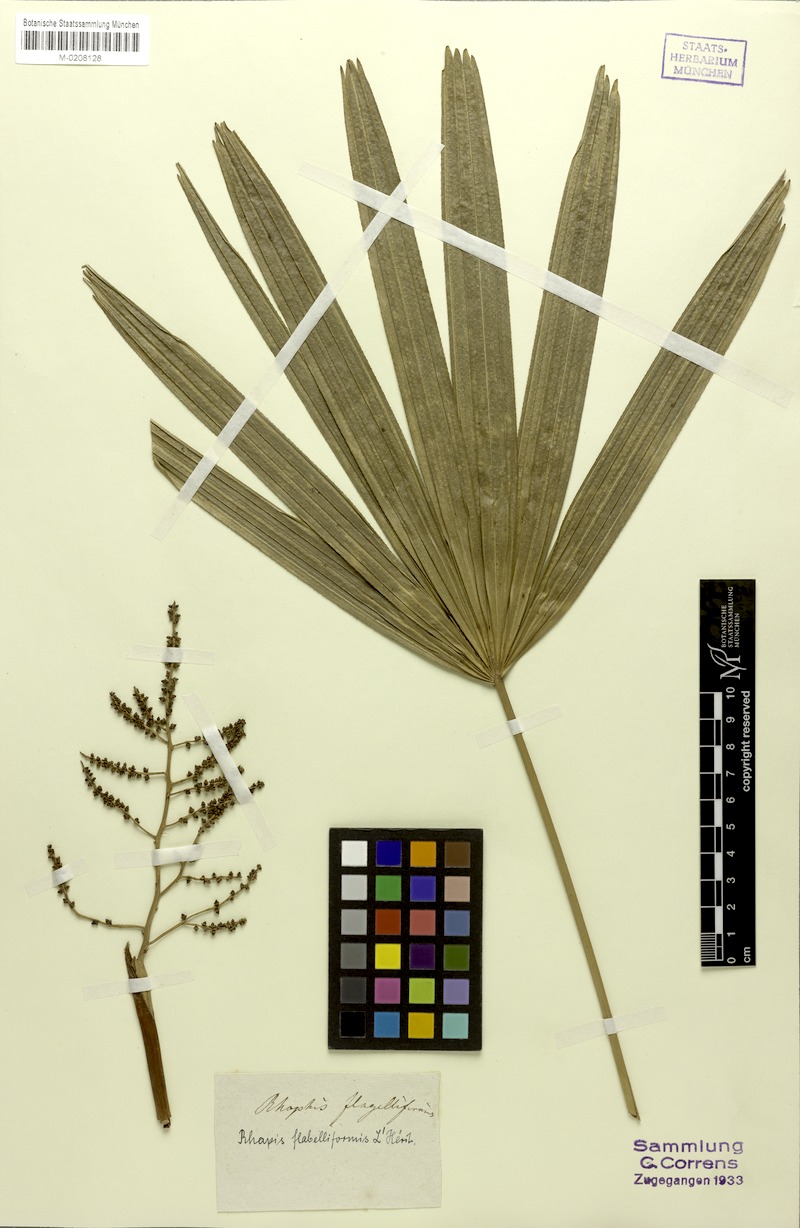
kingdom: Plantae
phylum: Tracheophyta
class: Liliopsida
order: Arecales
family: Arecaceae
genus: Rhapis
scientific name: Rhapis excelsa
